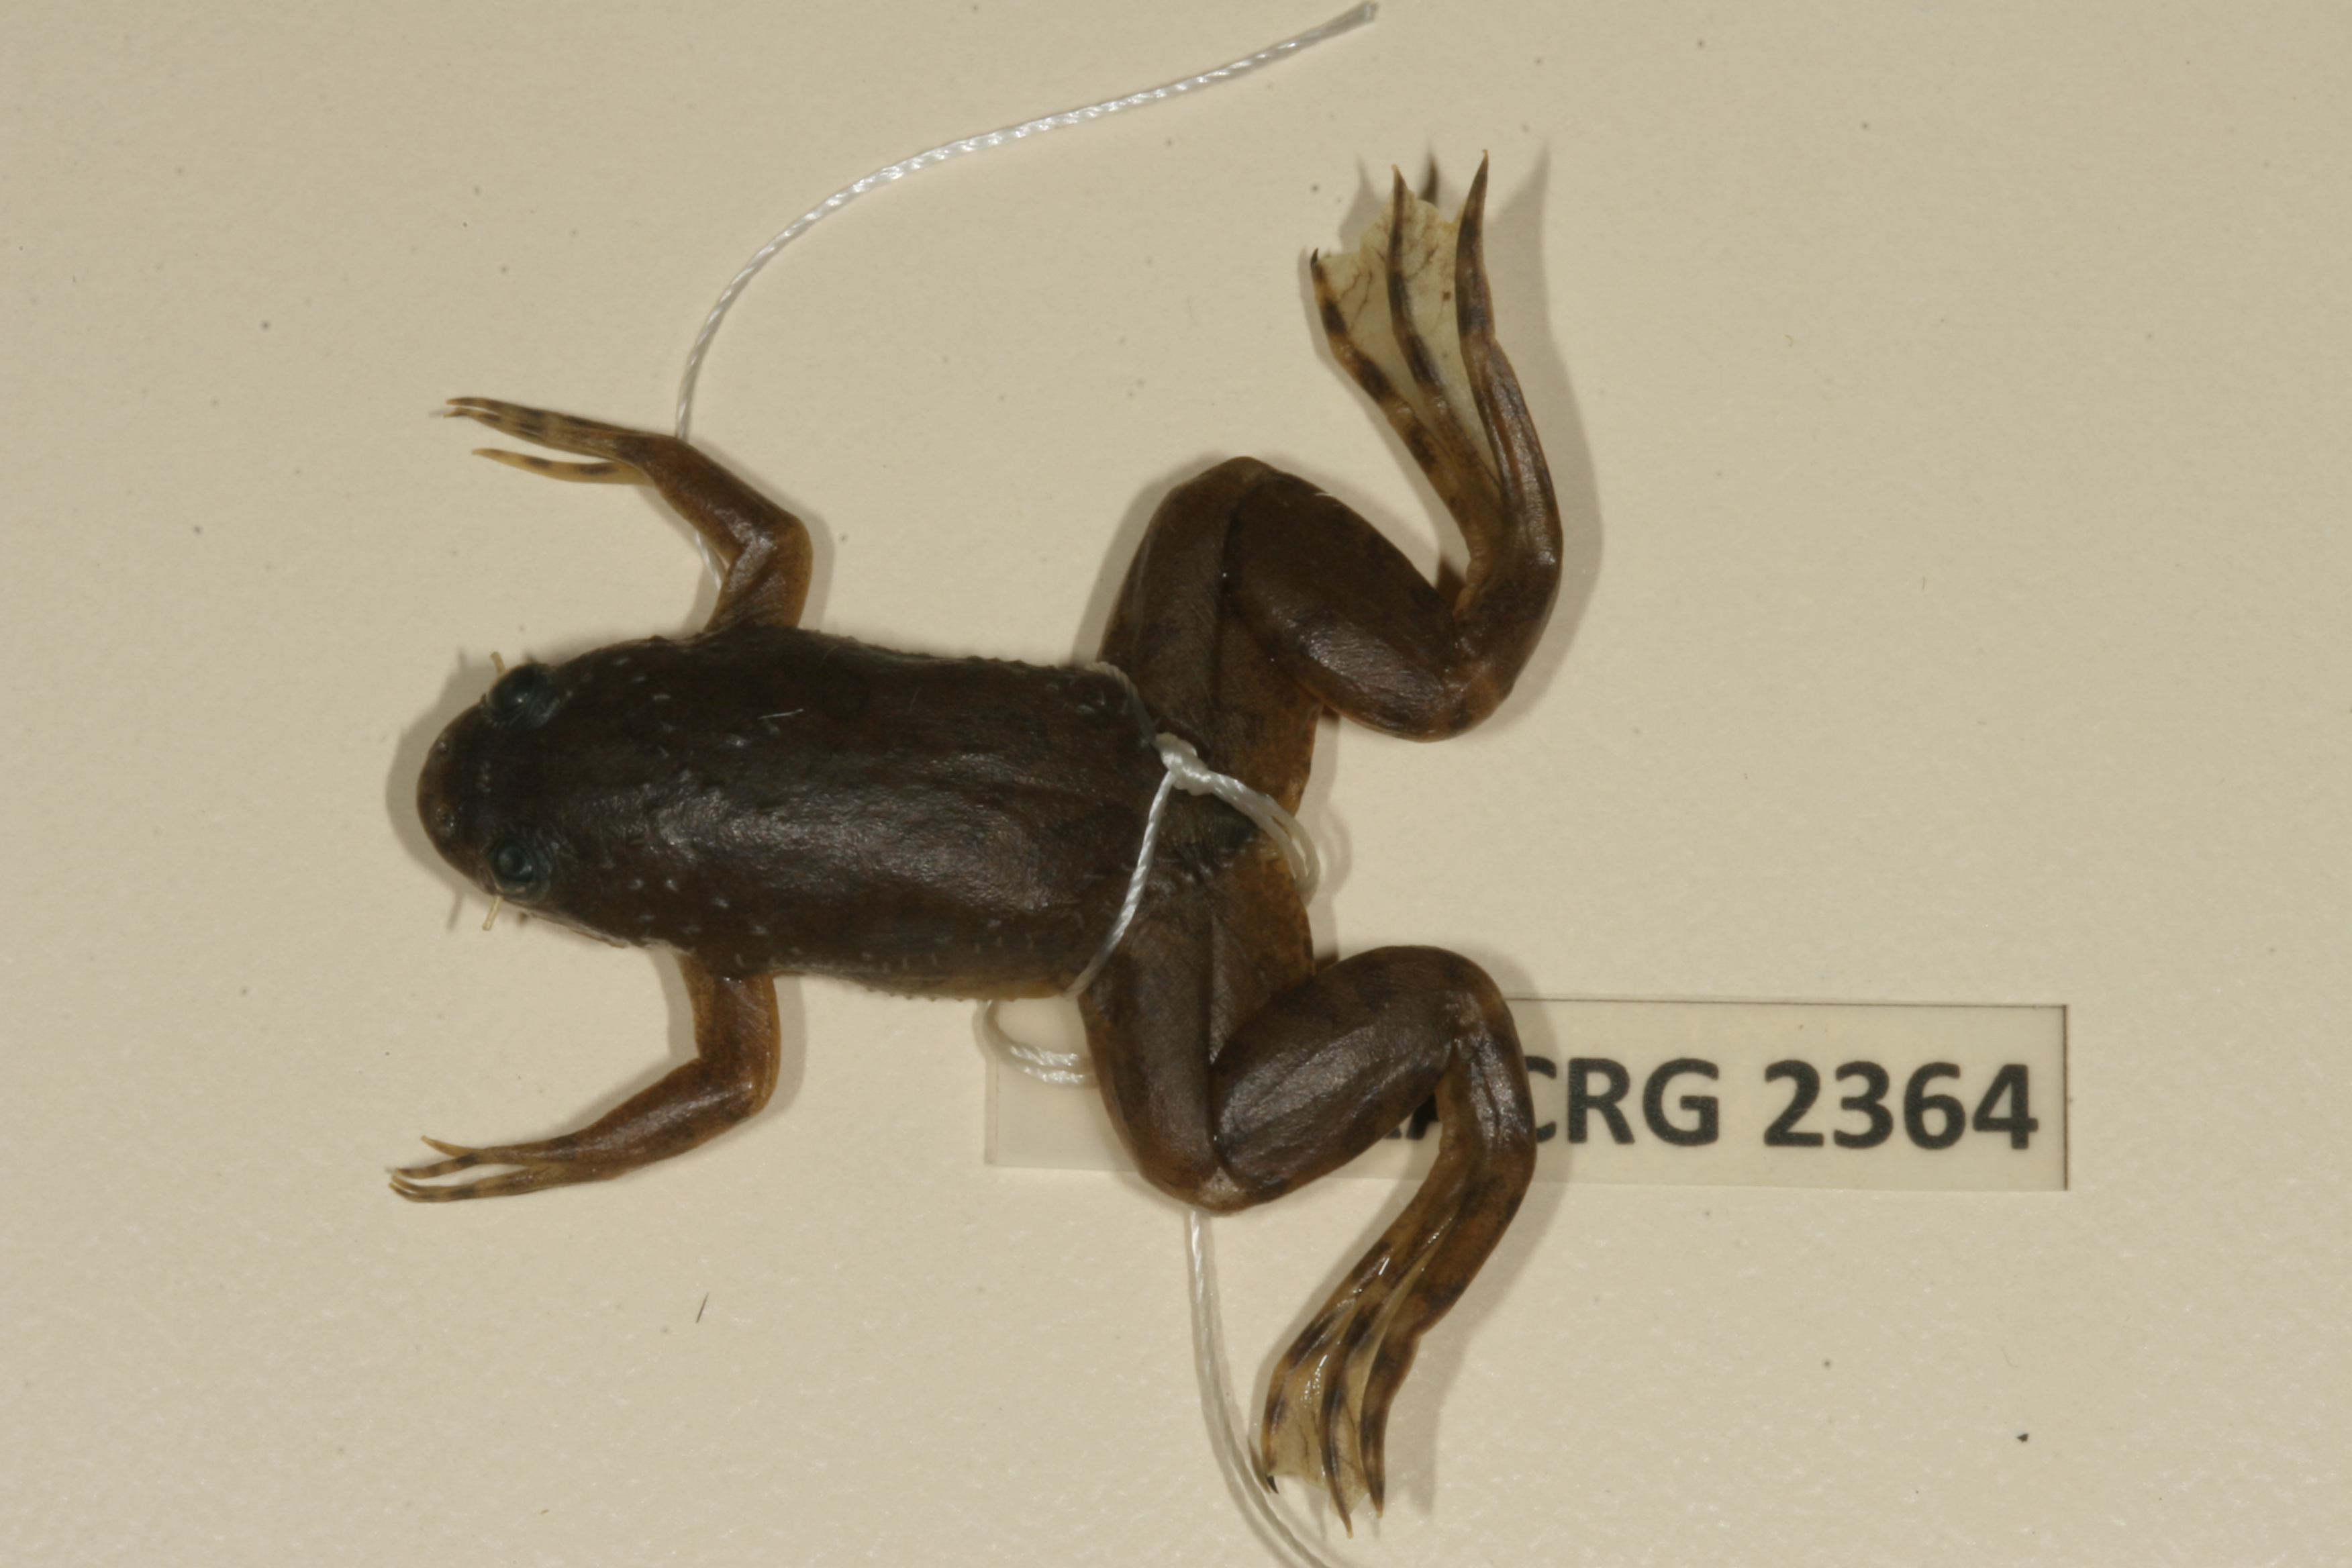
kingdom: Animalia
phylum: Chordata
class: Amphibia
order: Anura
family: Pipidae
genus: Xenopus
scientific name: Xenopus muelleri
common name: Muller's clawed frog
